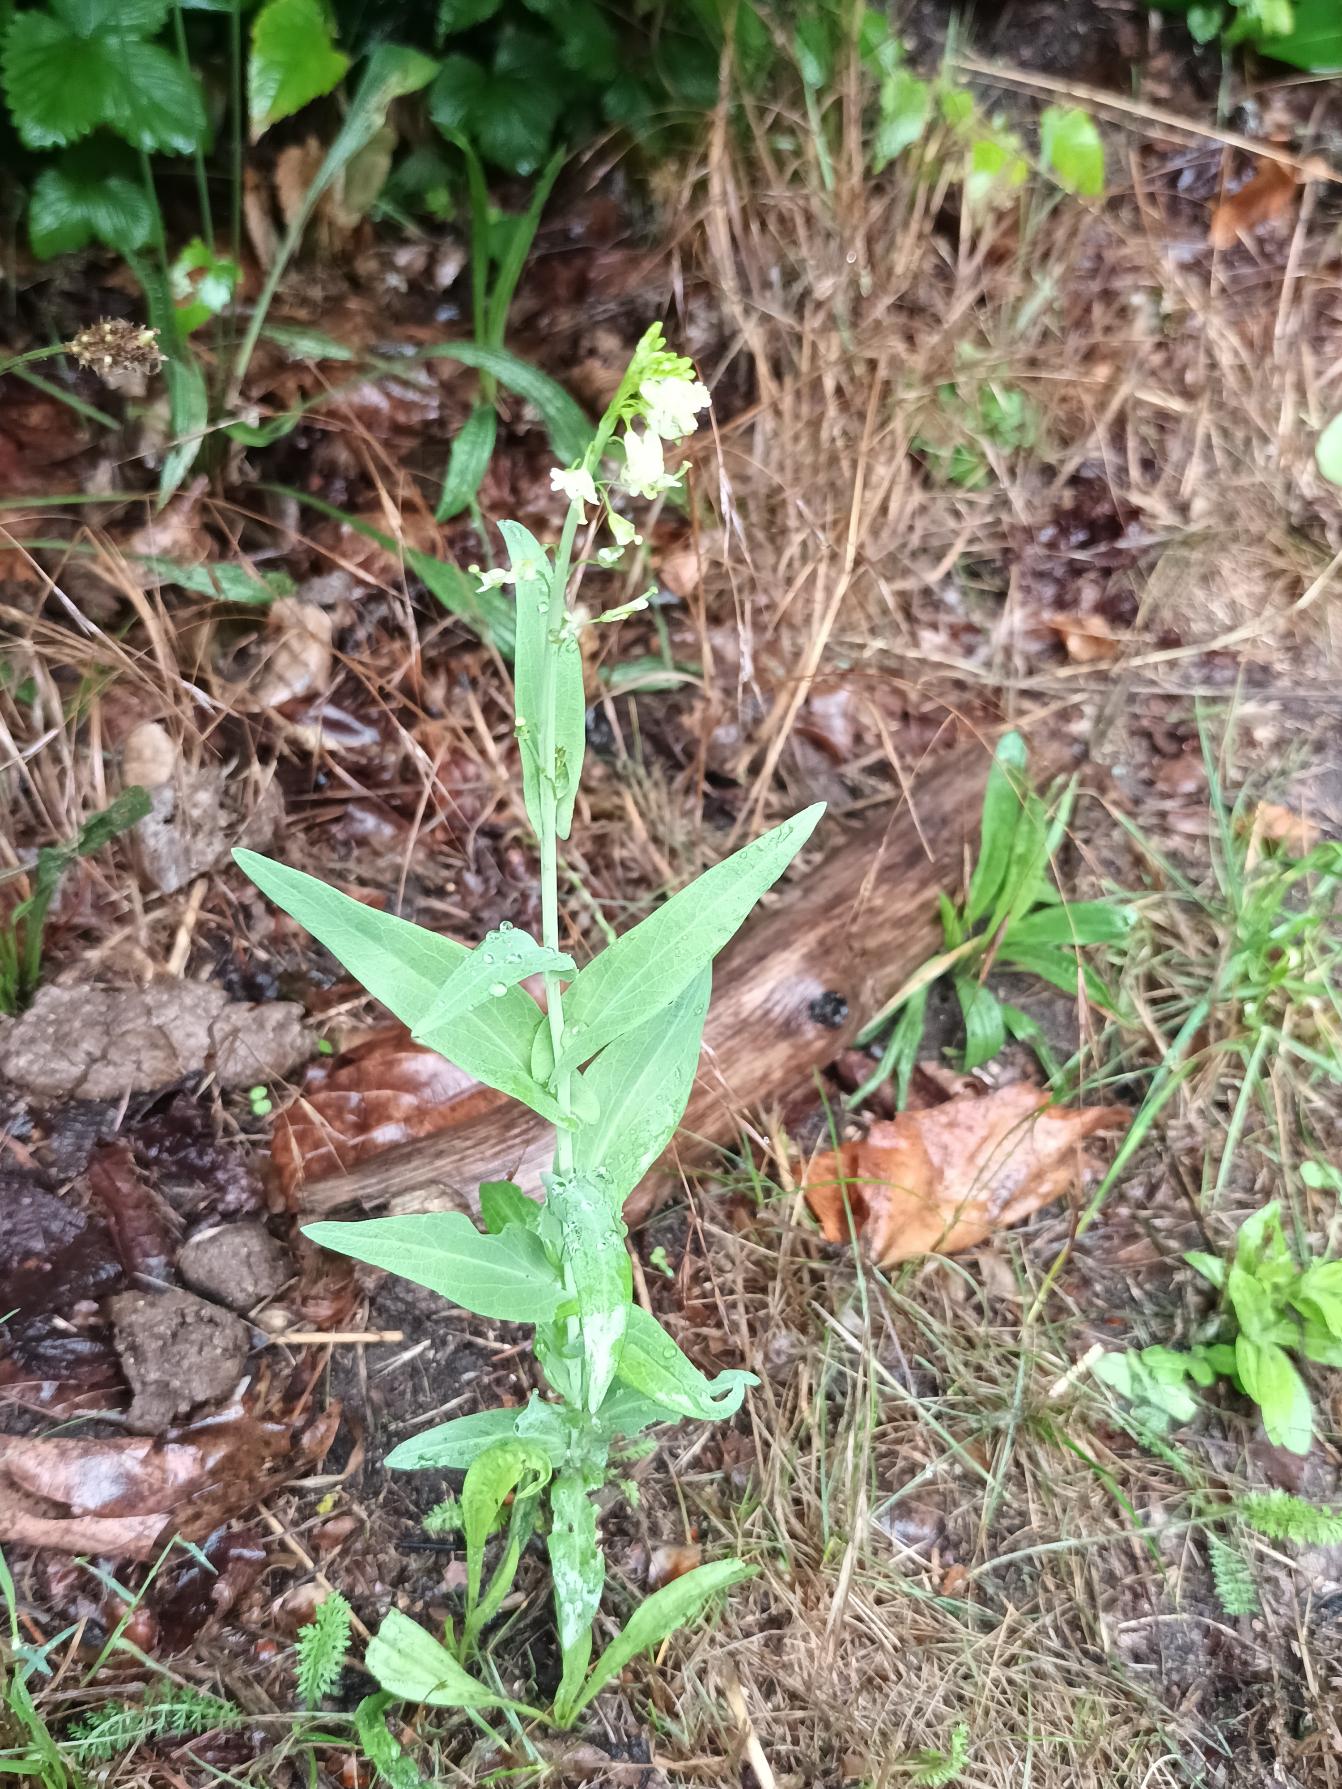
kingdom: Plantae
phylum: Tracheophyta
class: Magnoliopsida
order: Brassicales
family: Brassicaceae
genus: Turritis
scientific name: Turritis glabra
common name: Tårnurt
